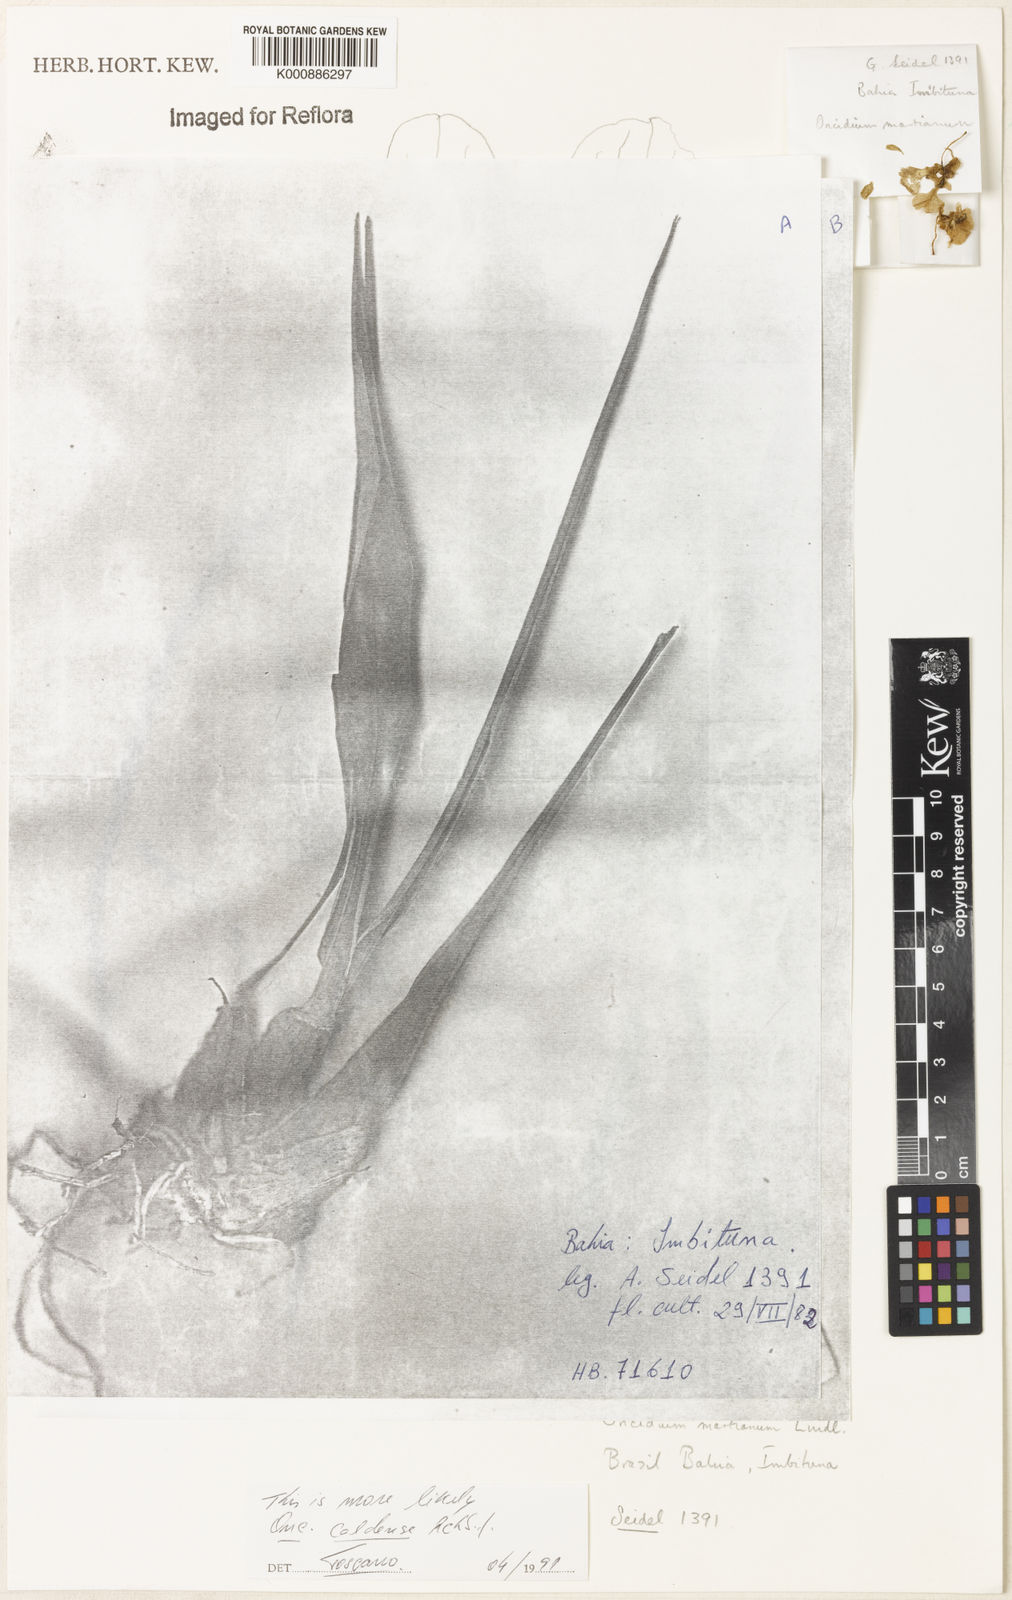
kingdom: Plantae
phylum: Tracheophyta
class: Liliopsida
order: Asparagales
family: Orchidaceae
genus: Gomesa
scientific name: Gomesa ramosa
